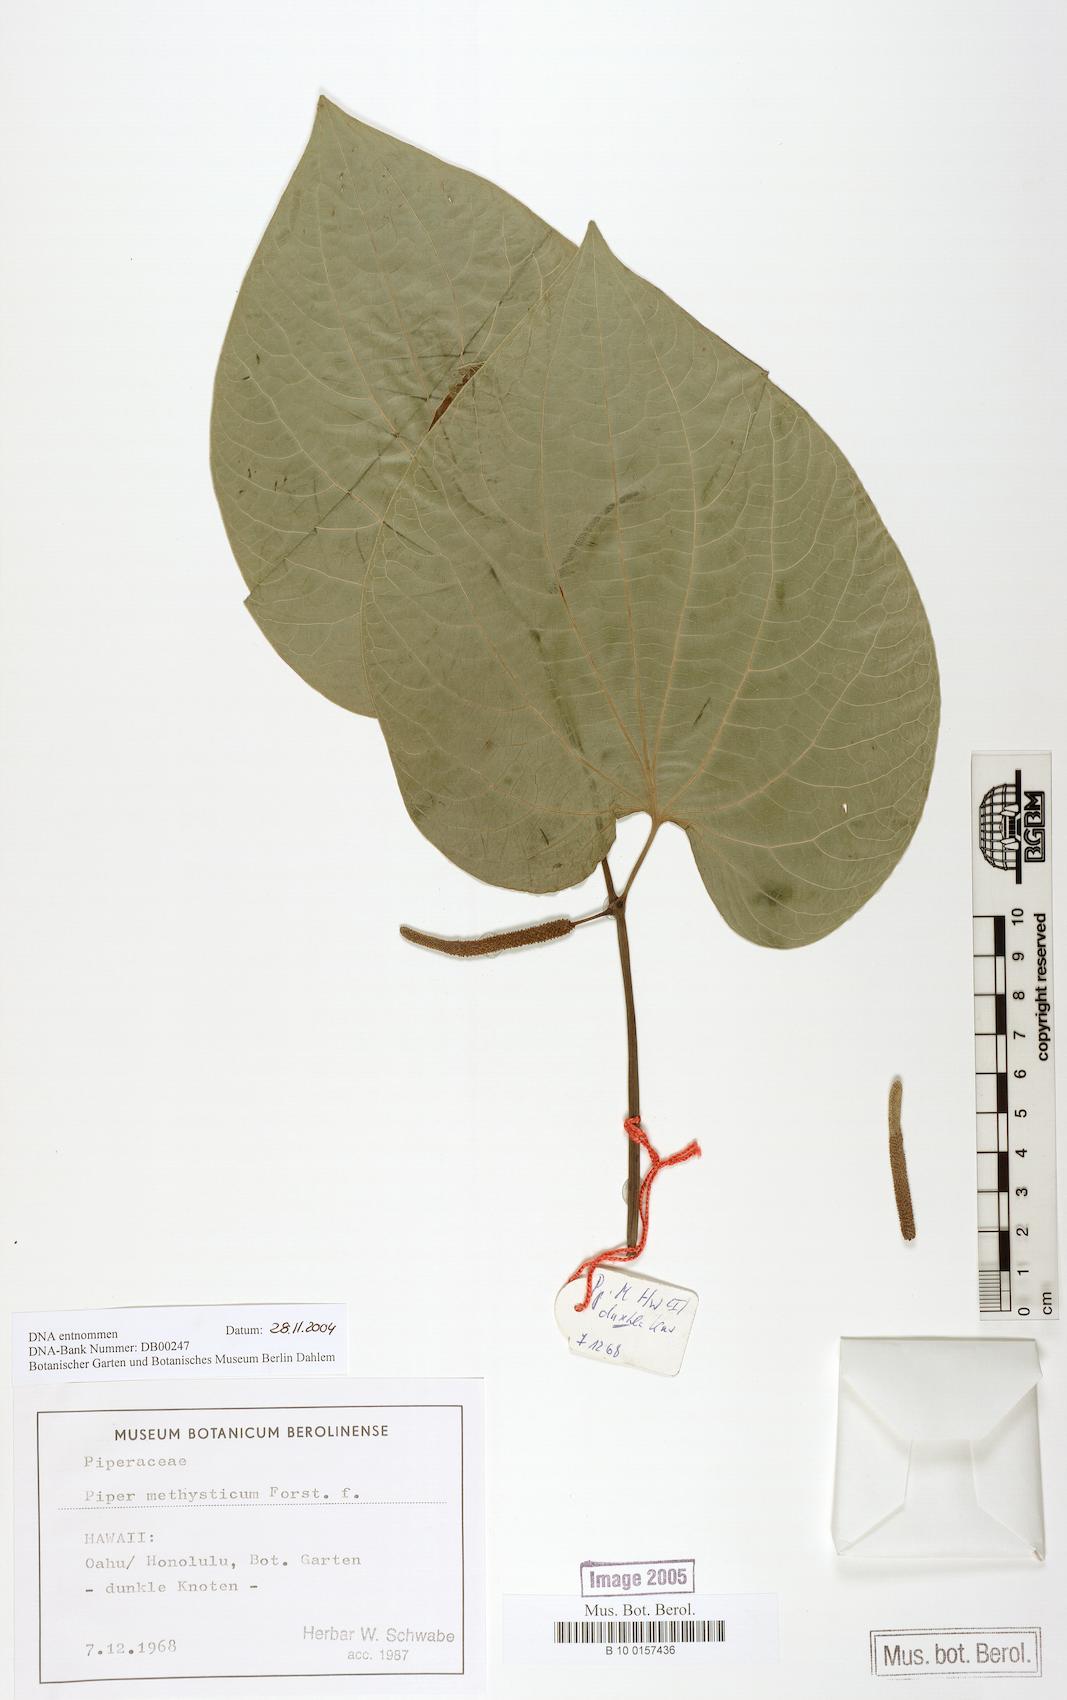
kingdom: Plantae
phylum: Tracheophyta
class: Magnoliopsida
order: Piperales
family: Piperaceae
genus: Macropiper
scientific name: Macropiper methysticum
